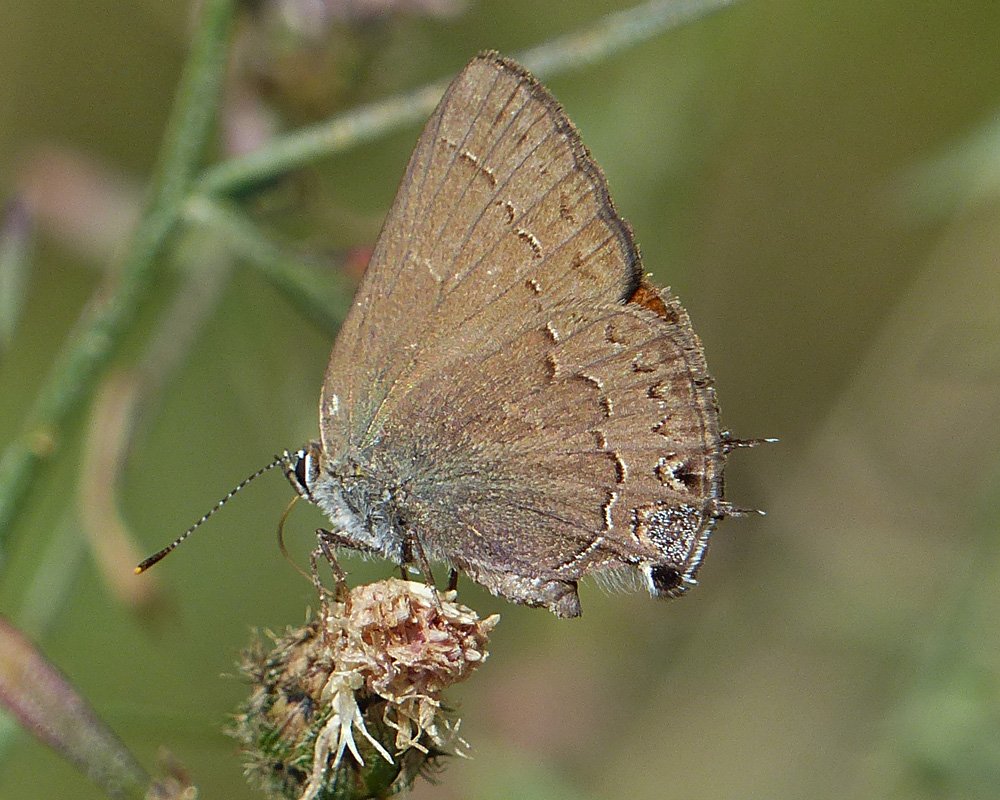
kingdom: Animalia
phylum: Arthropoda
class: Insecta
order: Lepidoptera
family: Lycaenidae
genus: Strymon
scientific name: Strymon saepium
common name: Hedgerow Hairstreak
